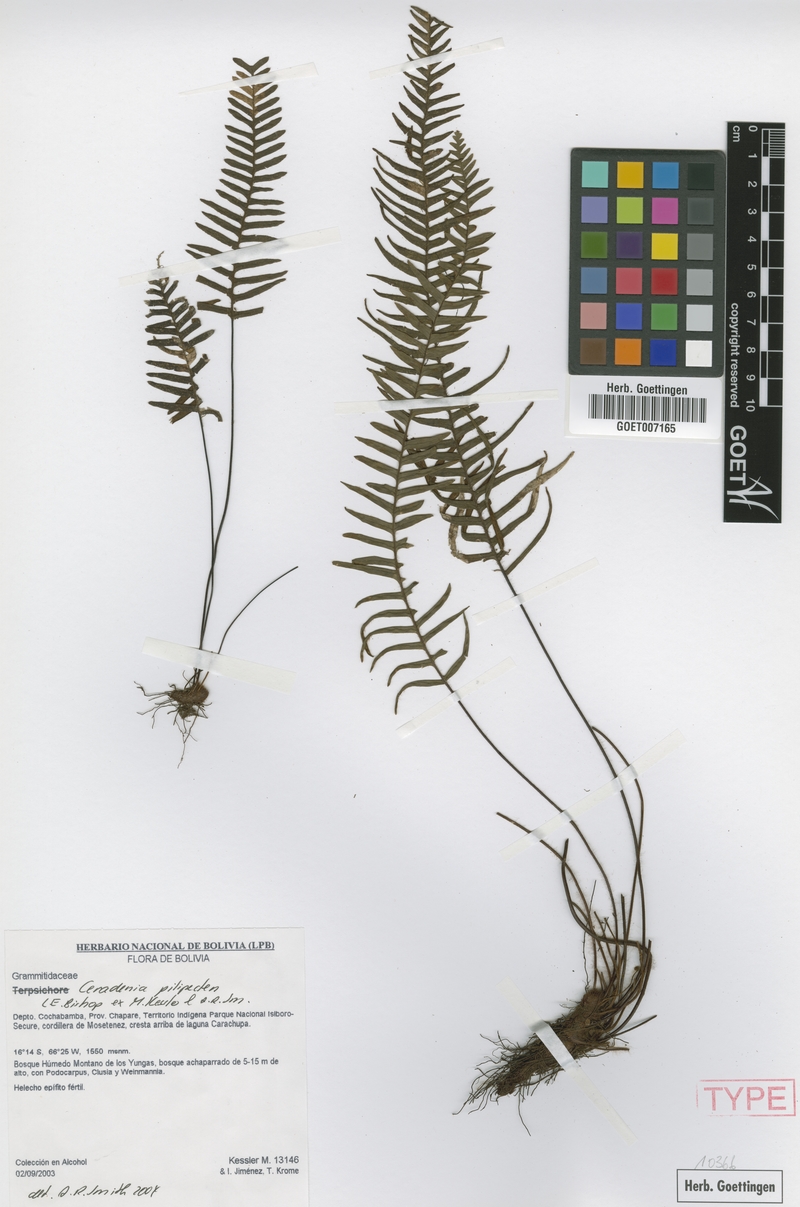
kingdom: Plantae
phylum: Tracheophyta
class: Polypodiopsida
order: Polypodiales
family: Polypodiaceae
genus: Ceradenia
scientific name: Ceradenia pilipecten
